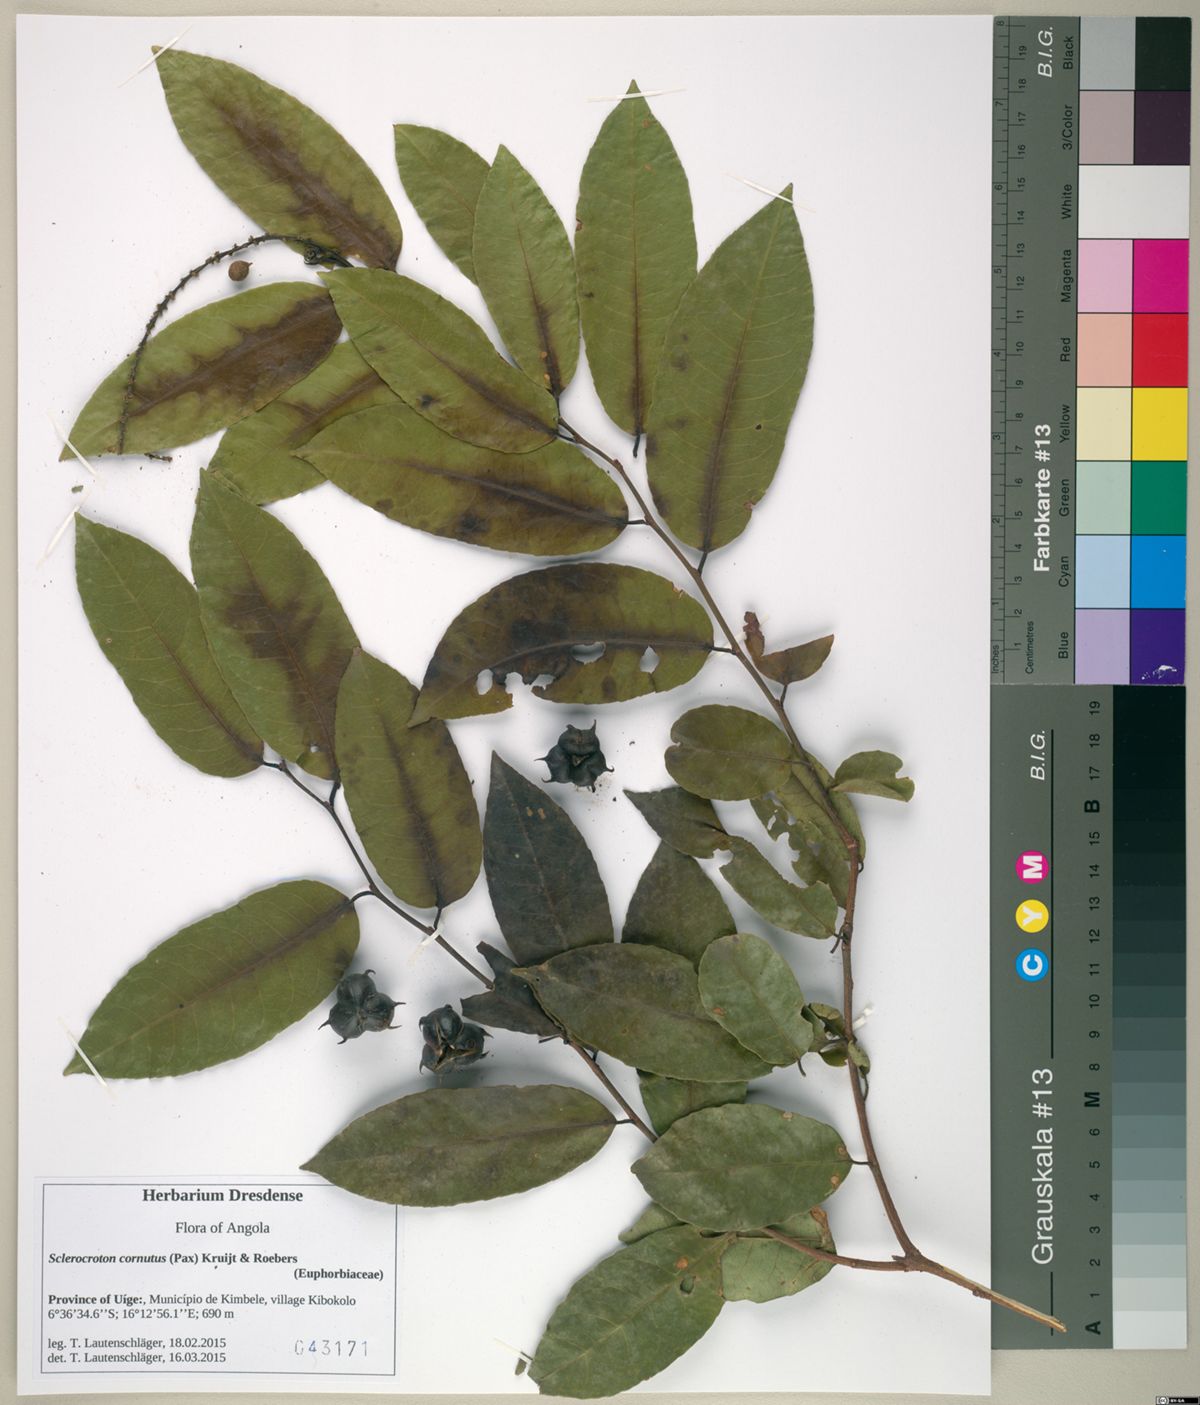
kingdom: Plantae
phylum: Tracheophyta
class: Magnoliopsida
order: Malpighiales
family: Euphorbiaceae
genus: Sclerocroton
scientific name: Sclerocroton cornutus
